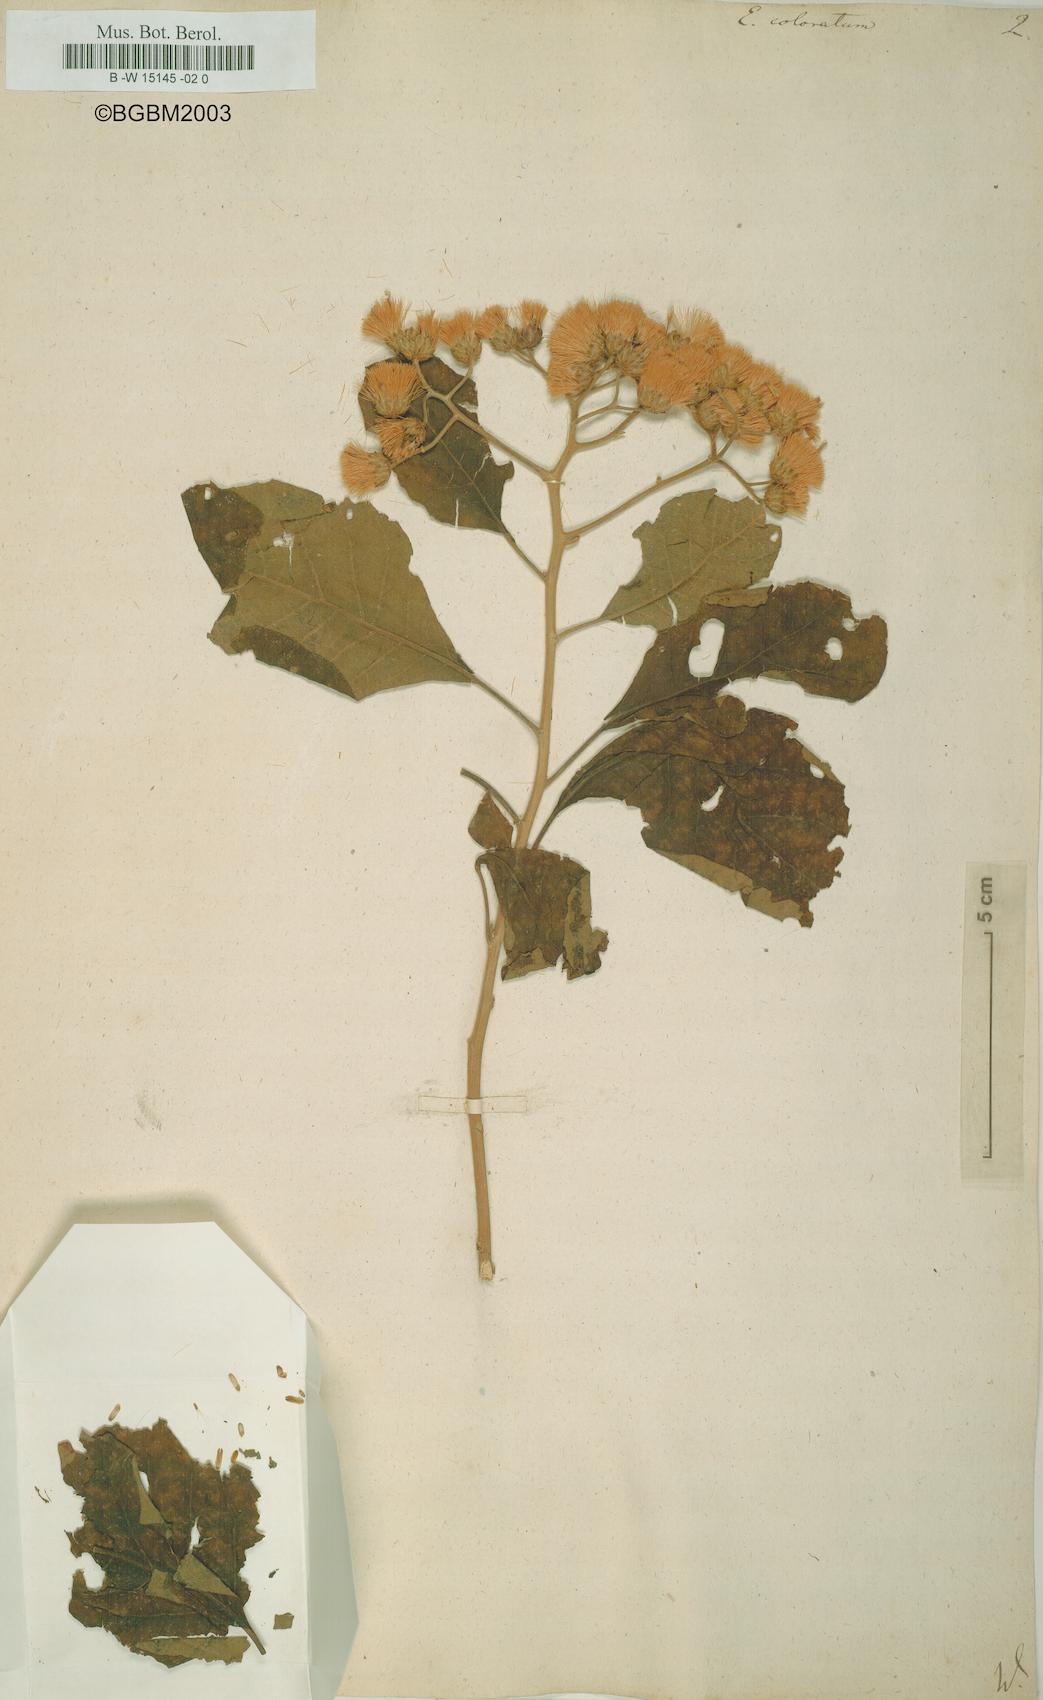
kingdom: Plantae
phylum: Tracheophyta
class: Magnoliopsida
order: Asterales
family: Asteraceae
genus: Eupatorium
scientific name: Eupatorium coloratum
